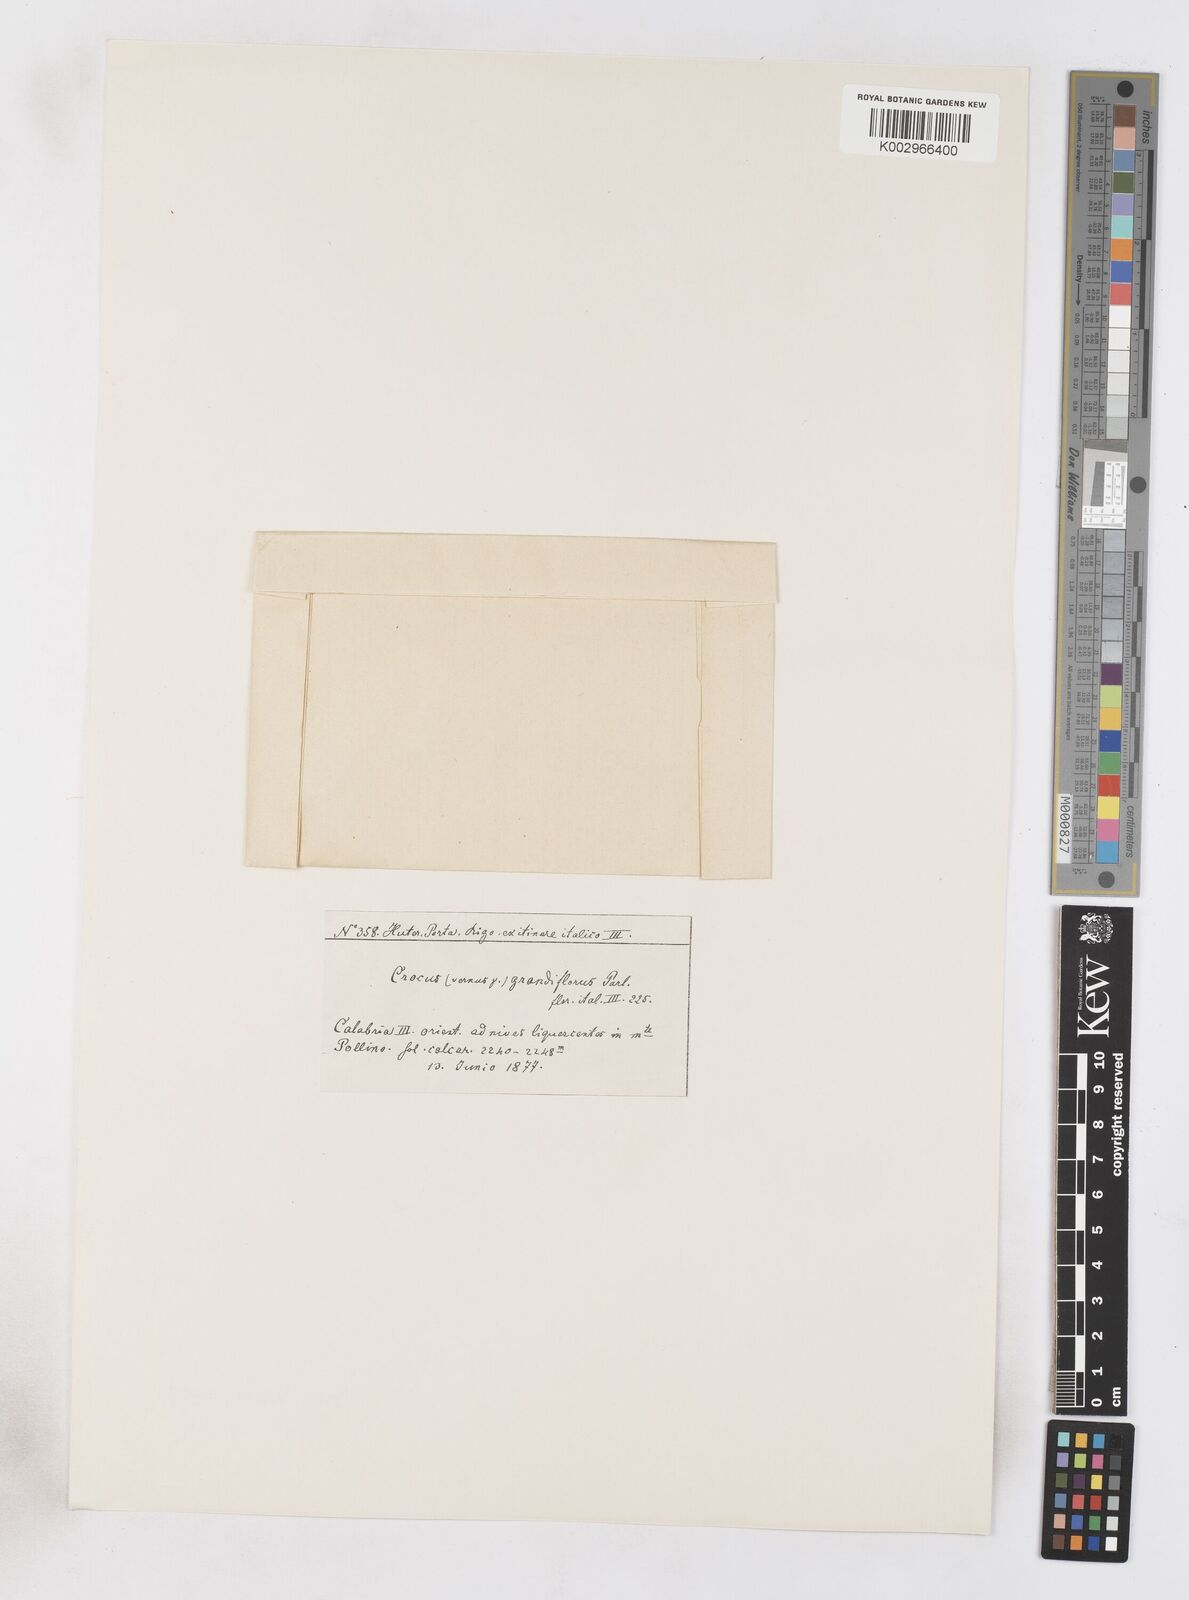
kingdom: Plantae
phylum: Tracheophyta
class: Liliopsida
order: Asparagales
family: Iridaceae
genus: Crocus
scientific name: Crocus vernus
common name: Spring crocus
